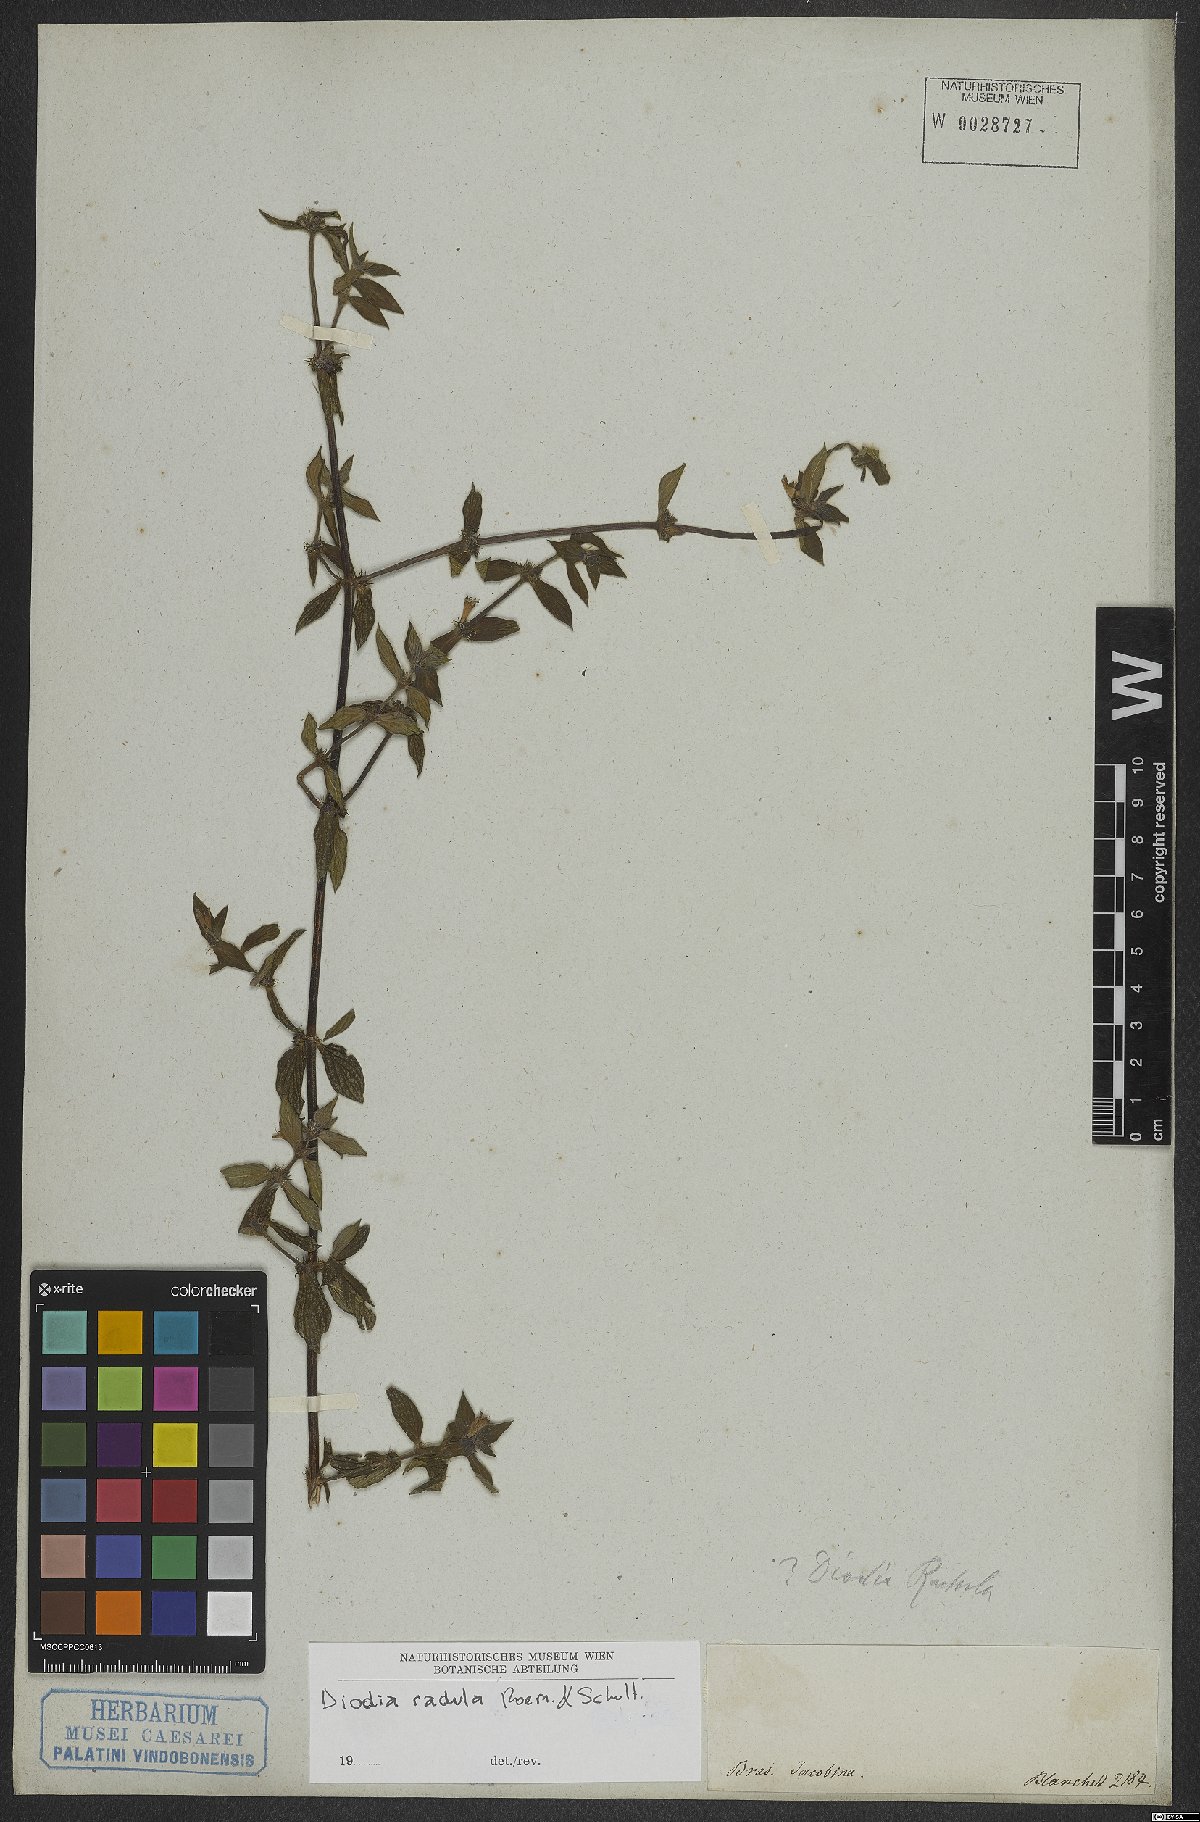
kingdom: Plantae
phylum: Tracheophyta
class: Magnoliopsida
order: Gentianales
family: Rubiaceae
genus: Hexasepalum
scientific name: Hexasepalum radulum
